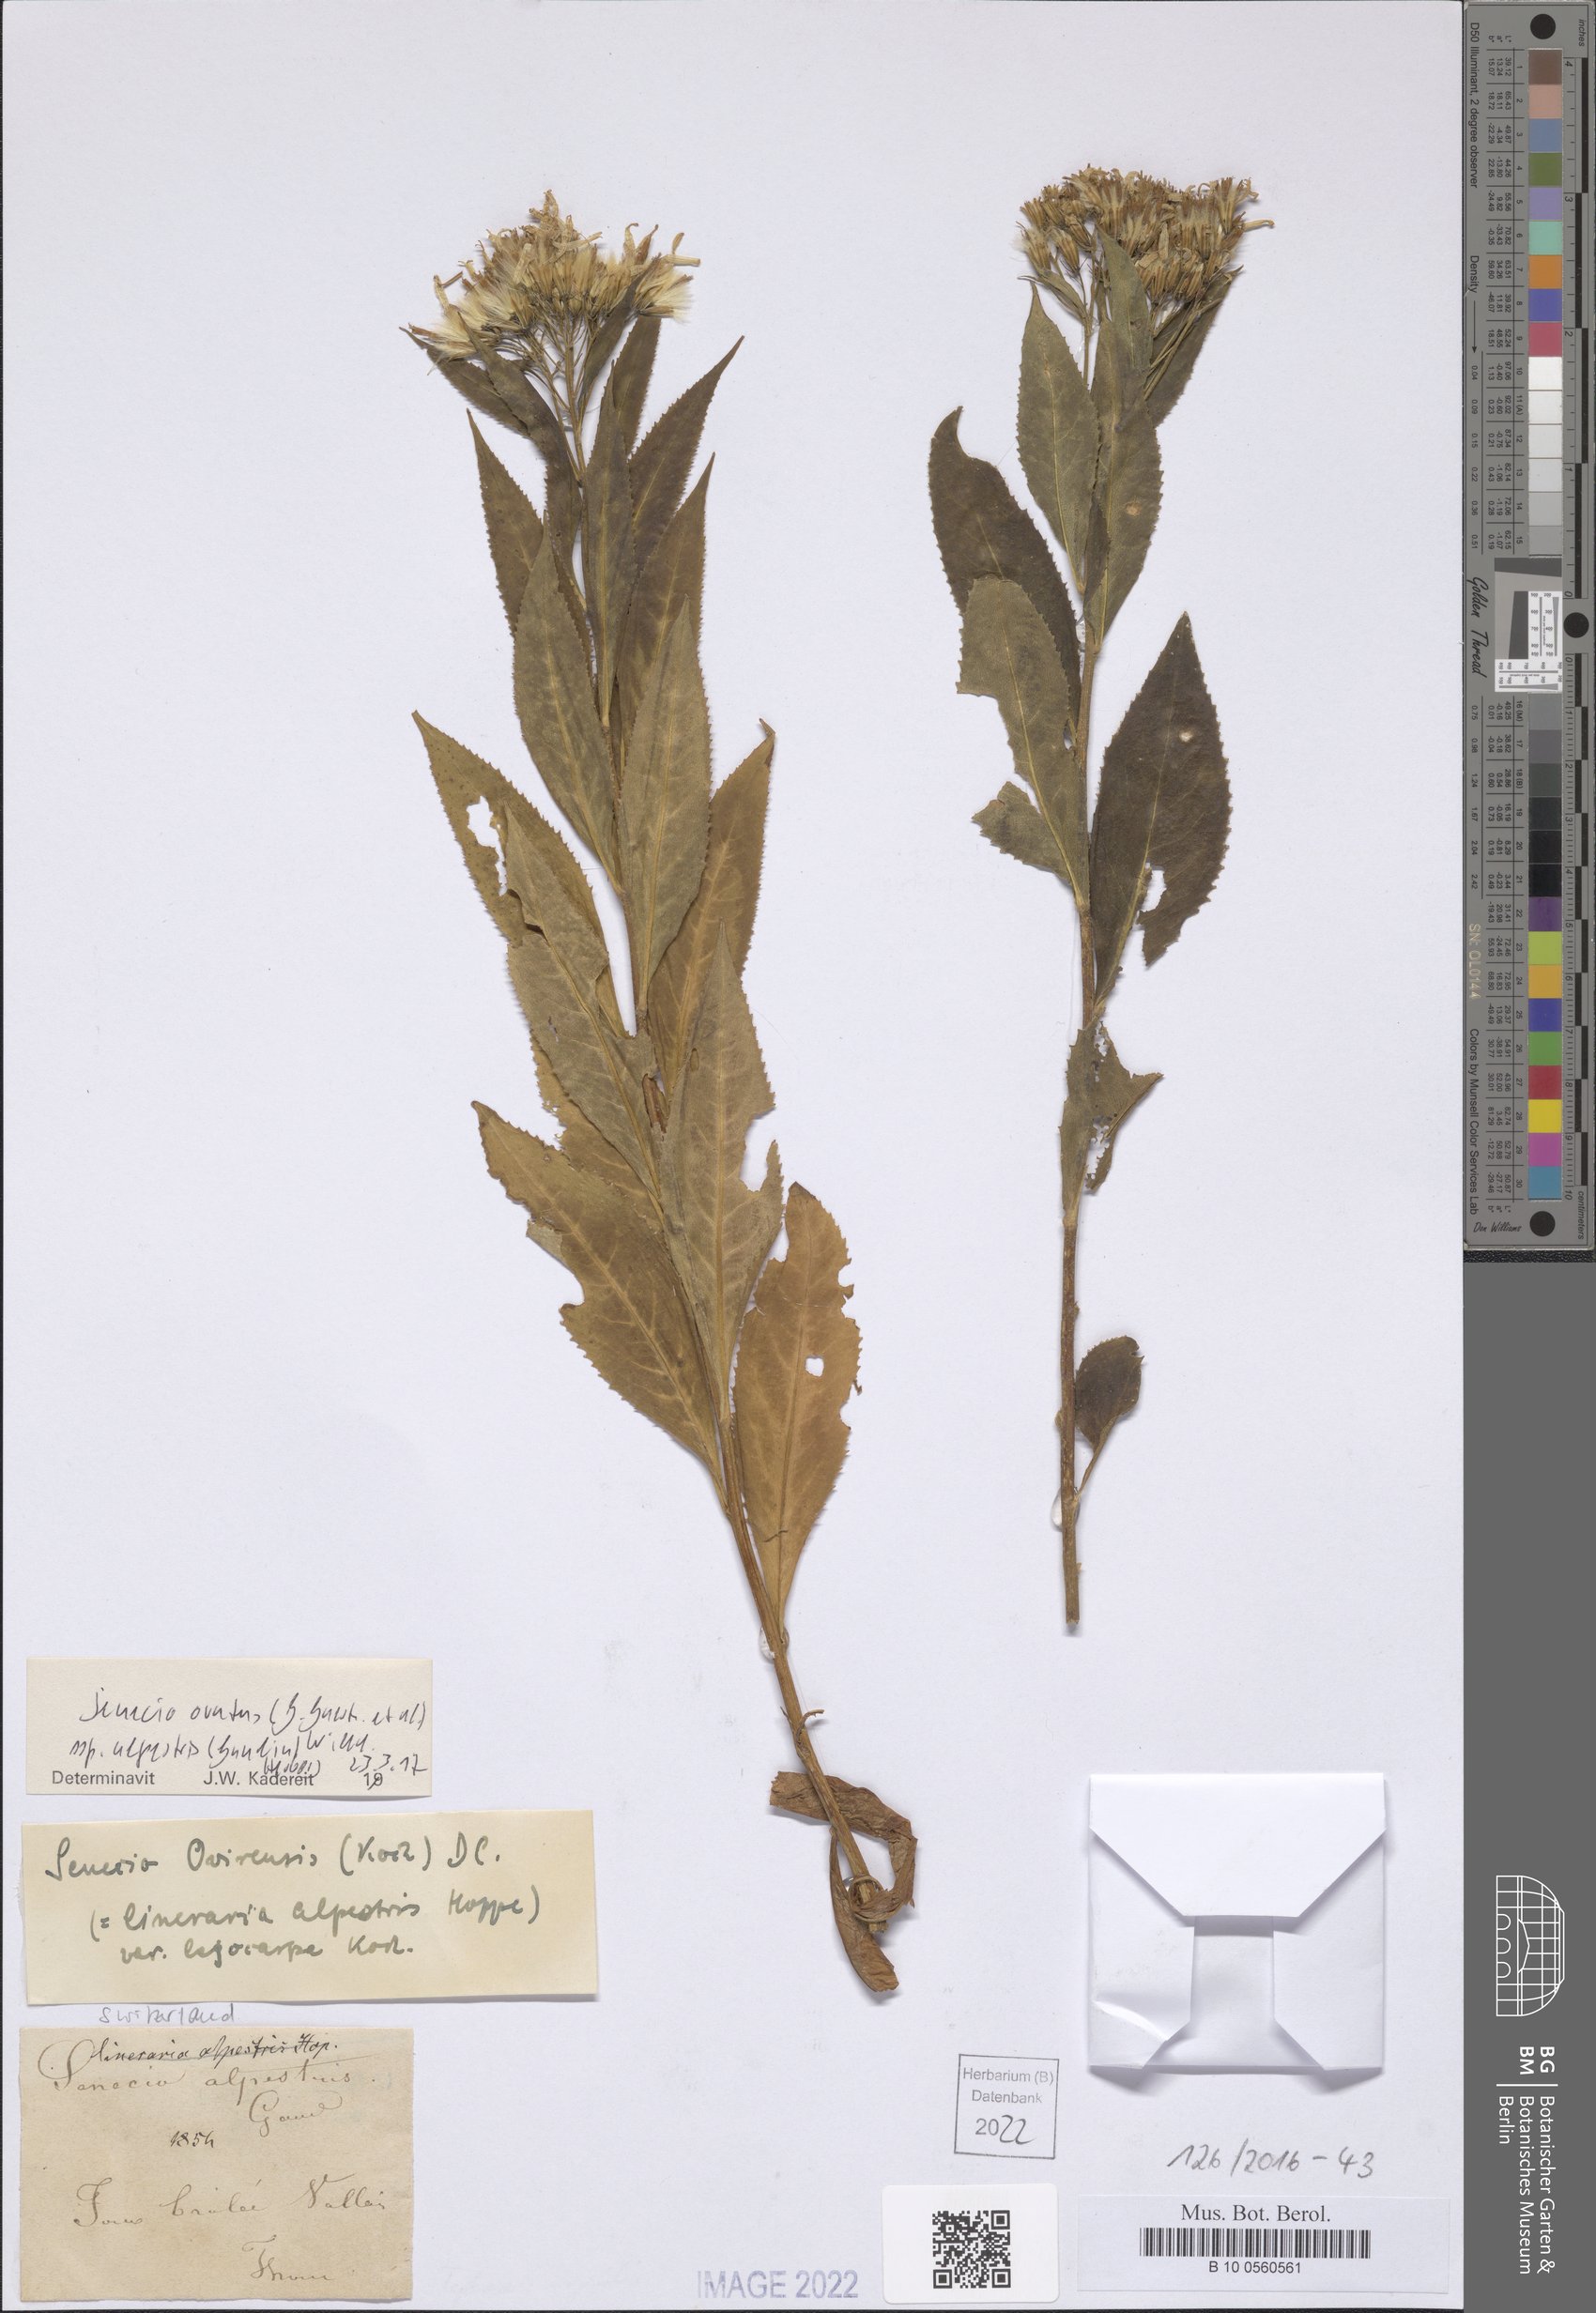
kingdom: Plantae
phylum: Tracheophyta
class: Magnoliopsida
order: Asterales
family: Asteraceae
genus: Senecio
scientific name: Senecio ovatus
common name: Wood ragwort
